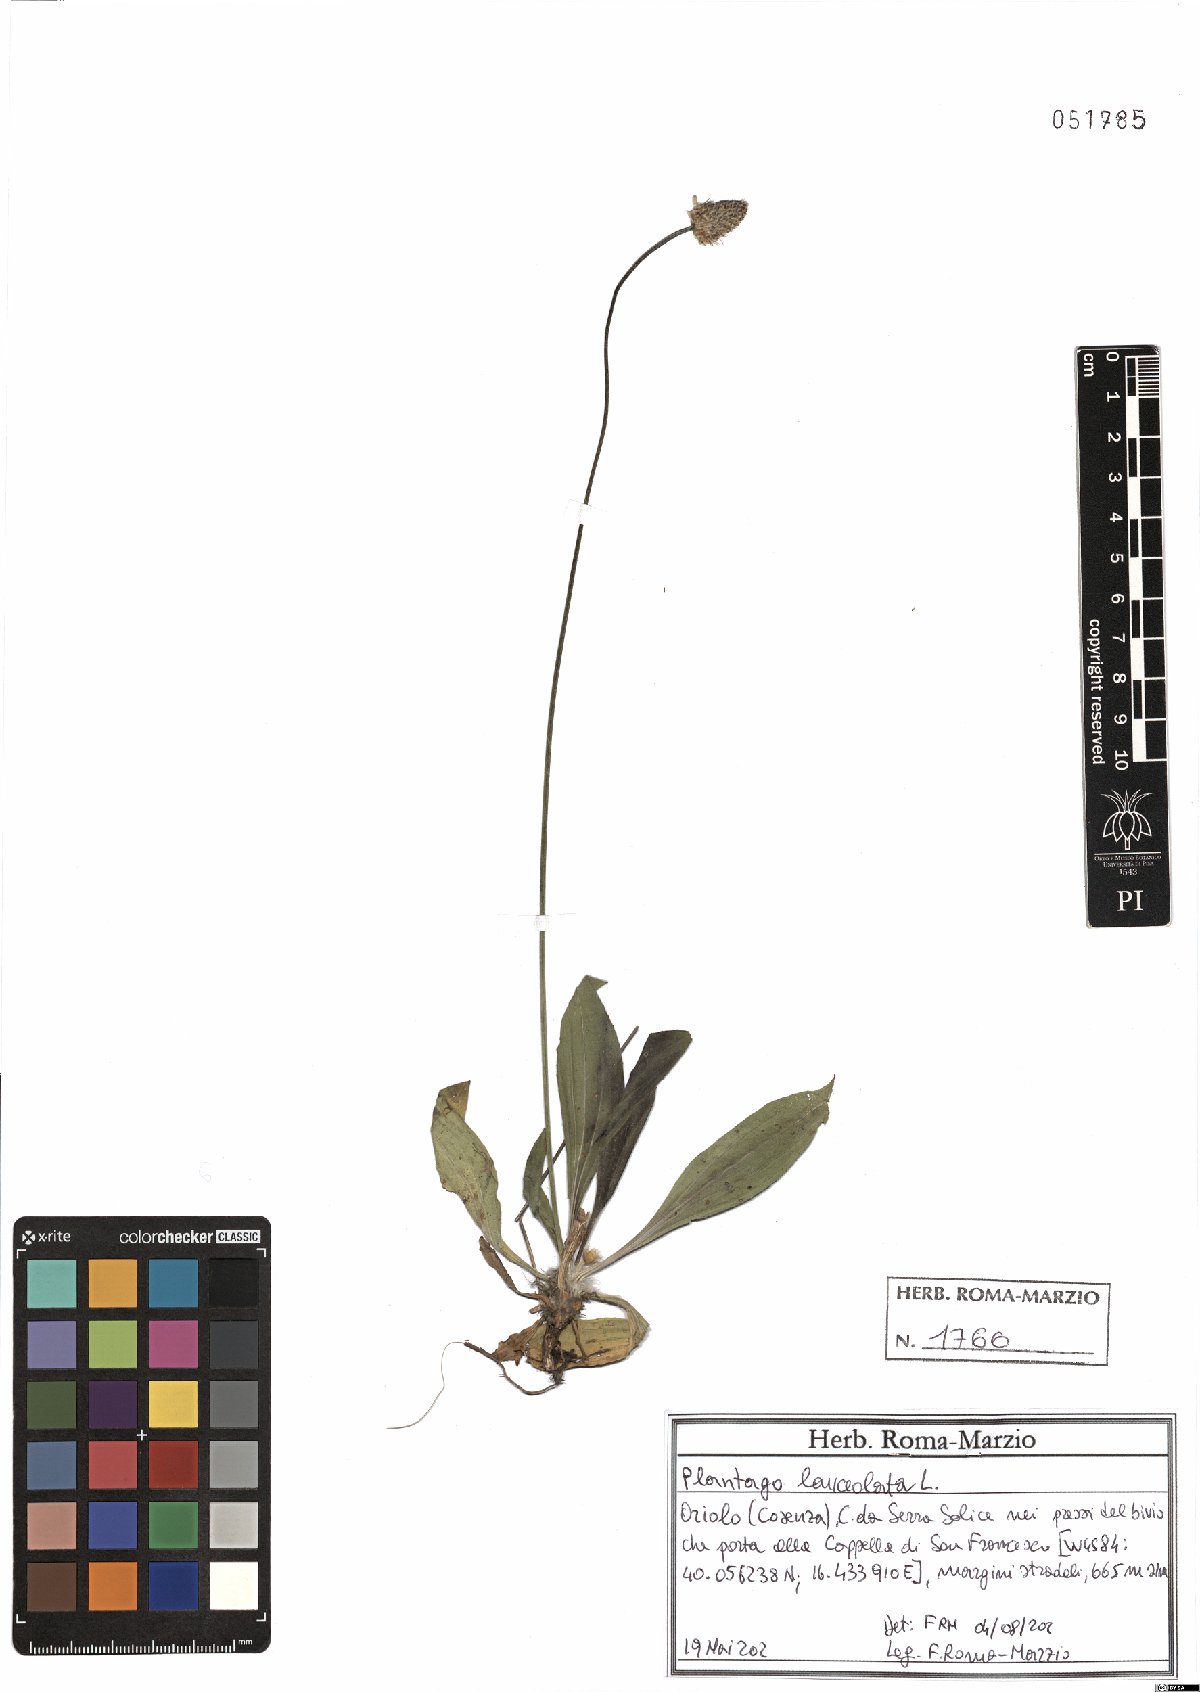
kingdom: Plantae
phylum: Tracheophyta
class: Magnoliopsida
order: Lamiales
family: Plantaginaceae
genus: Plantago
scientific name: Plantago lanceolata
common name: Ribwort plantain
